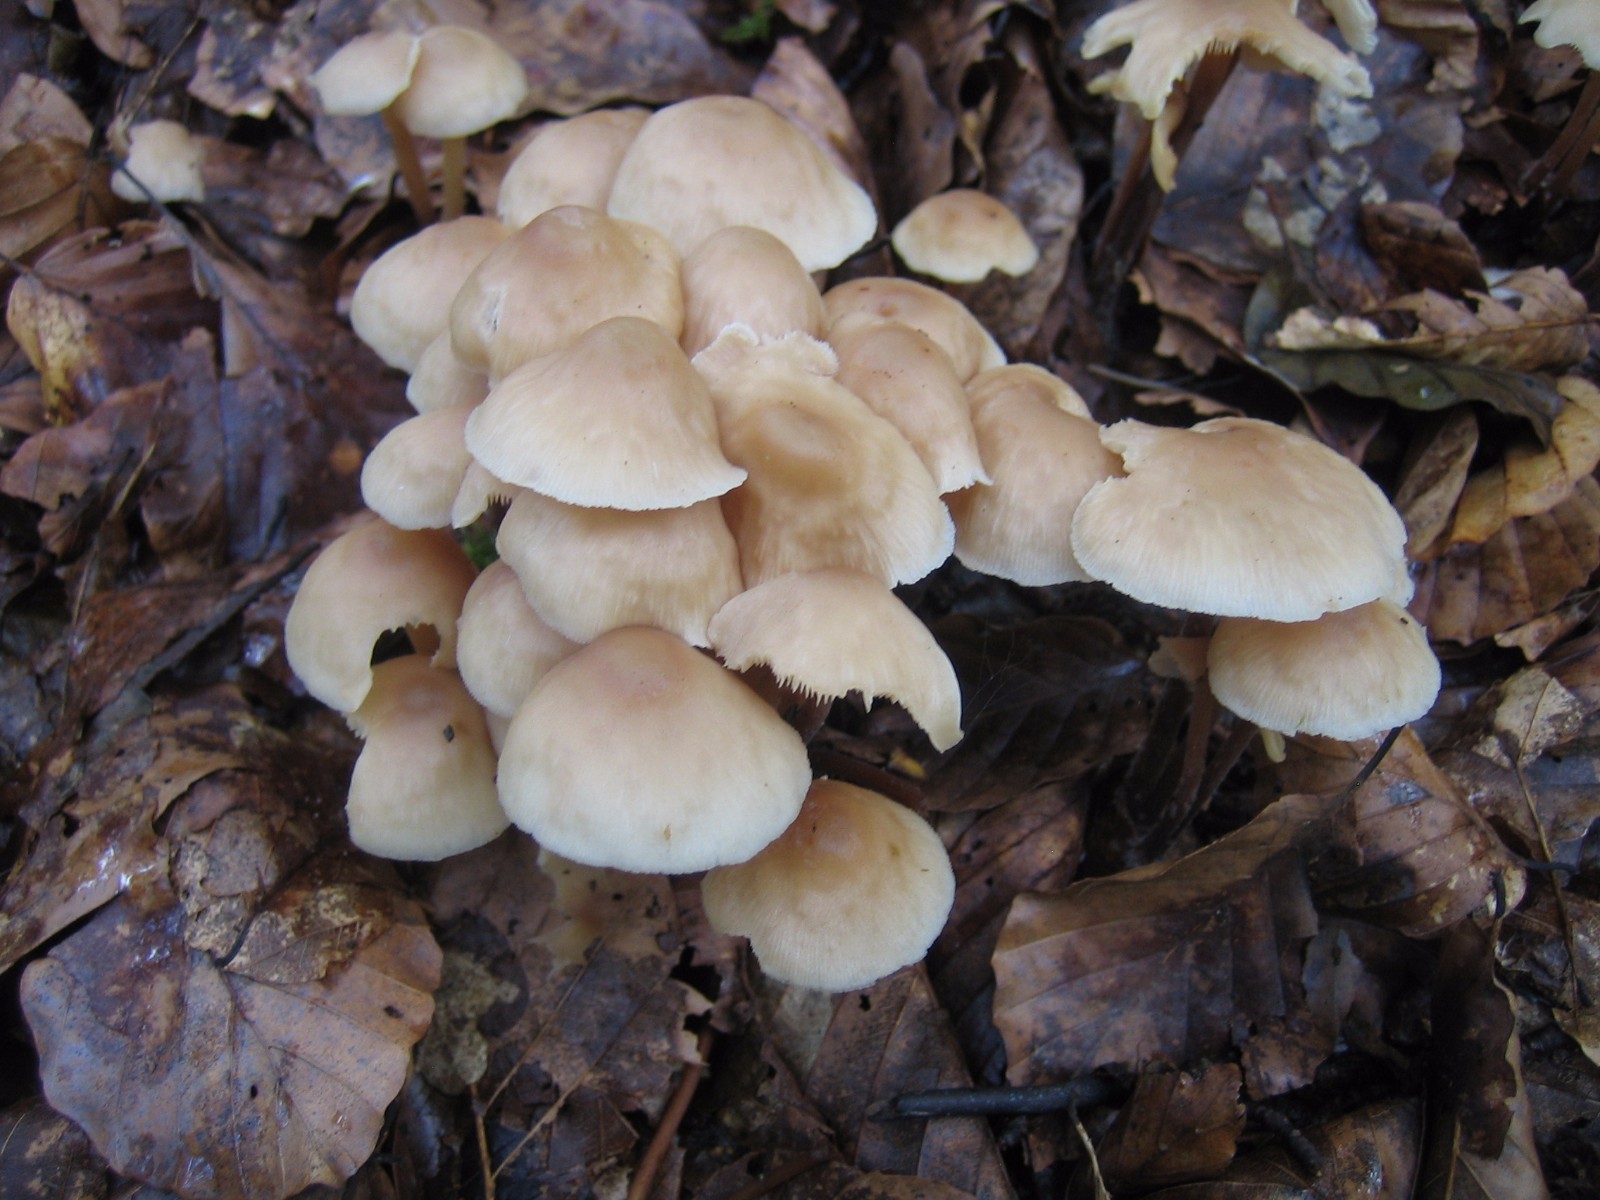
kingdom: Fungi
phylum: Basidiomycota
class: Agaricomycetes
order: Agaricales
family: Omphalotaceae
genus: Collybiopsis
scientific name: Collybiopsis confluens
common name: knippe-fladhat
